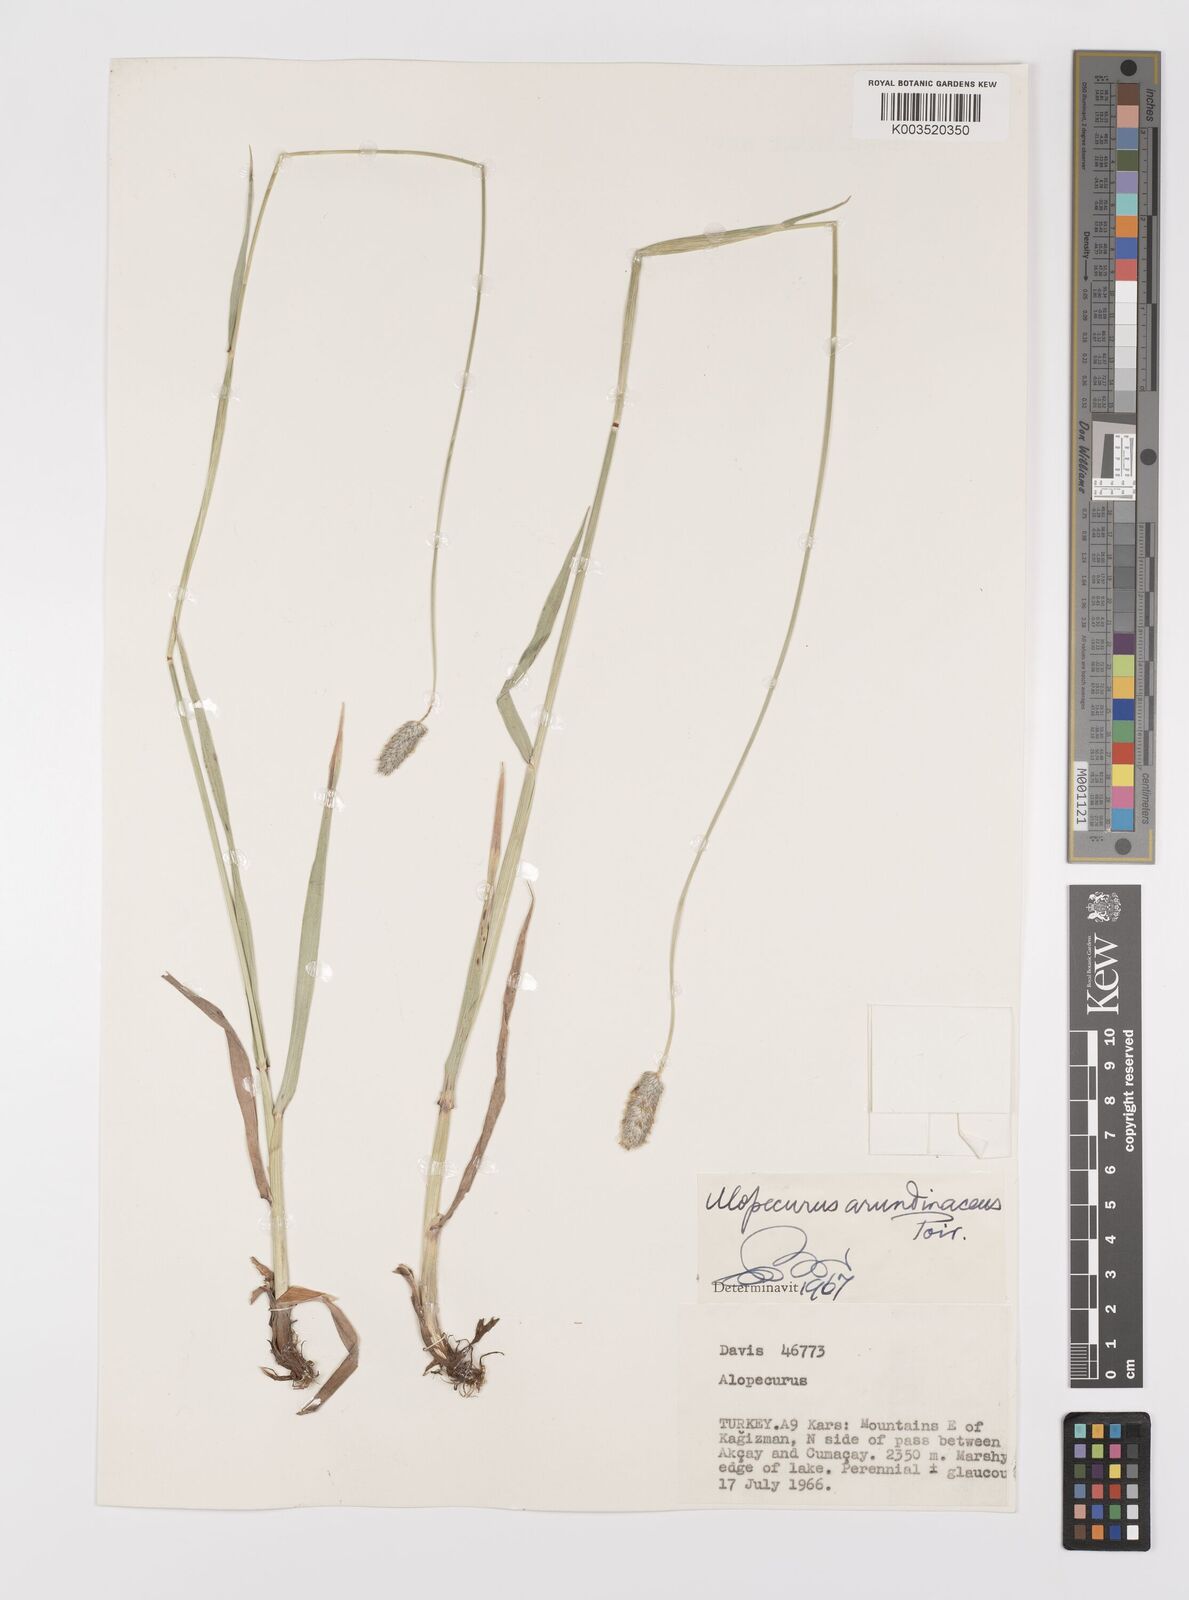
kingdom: Plantae
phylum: Tracheophyta
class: Liliopsida
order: Poales
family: Poaceae
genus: Alopecurus
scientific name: Alopecurus arundinaceus
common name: Creeping meadow foxtail
